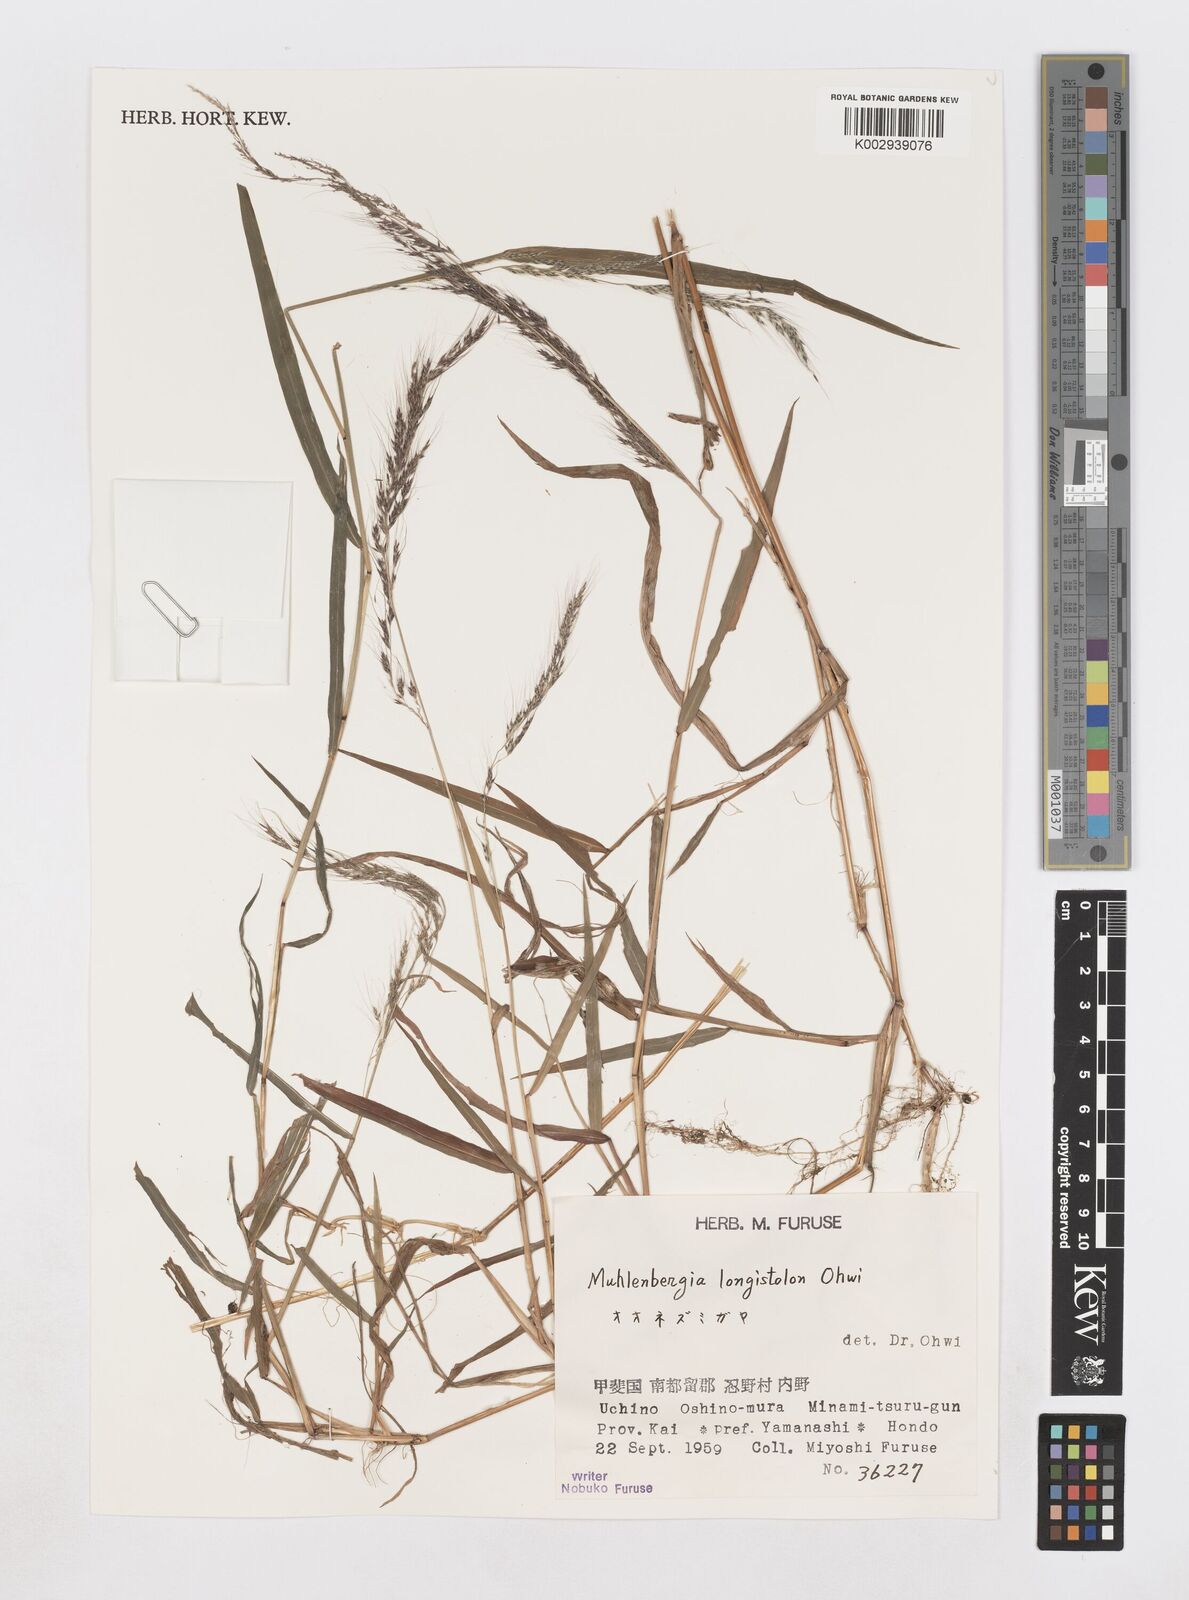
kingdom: Plantae
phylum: Tracheophyta
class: Liliopsida
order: Poales
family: Poaceae
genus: Muhlenbergia
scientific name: Muhlenbergia huegelii
